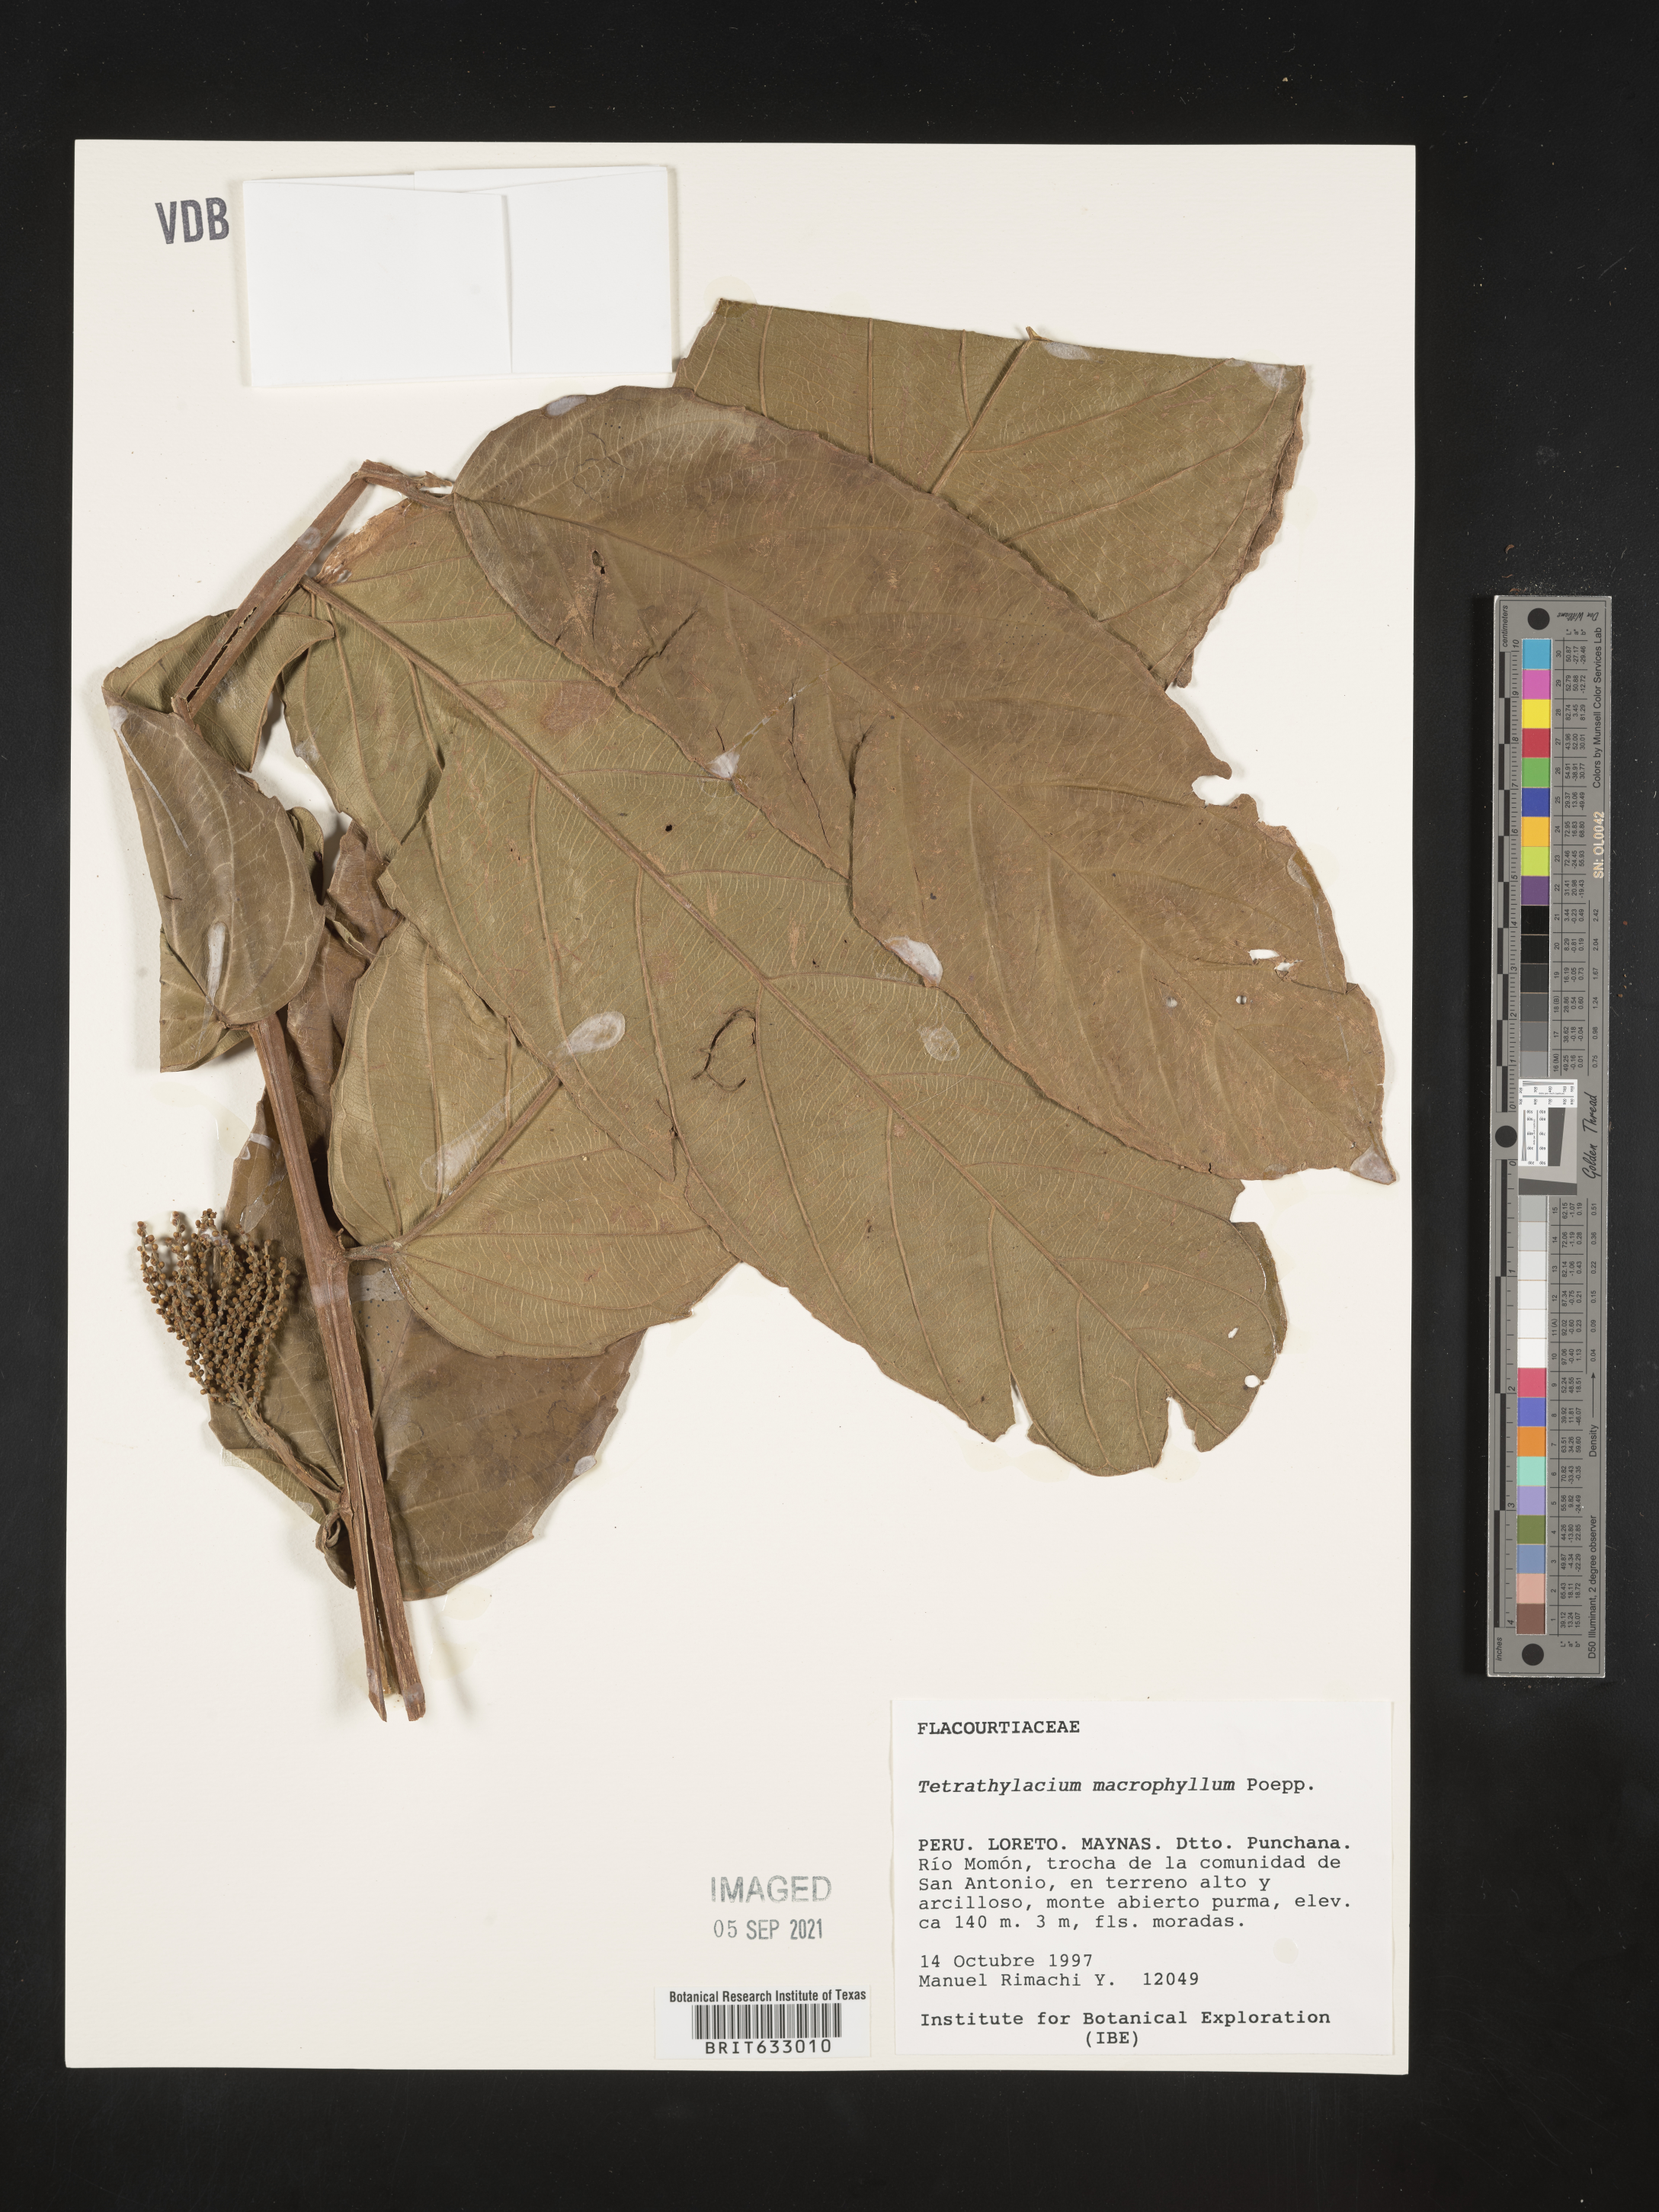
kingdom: Plantae
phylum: Tracheophyta
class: Magnoliopsida
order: Malpighiales
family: Salicaceae
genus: Tetrathylacium
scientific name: Tetrathylacium
